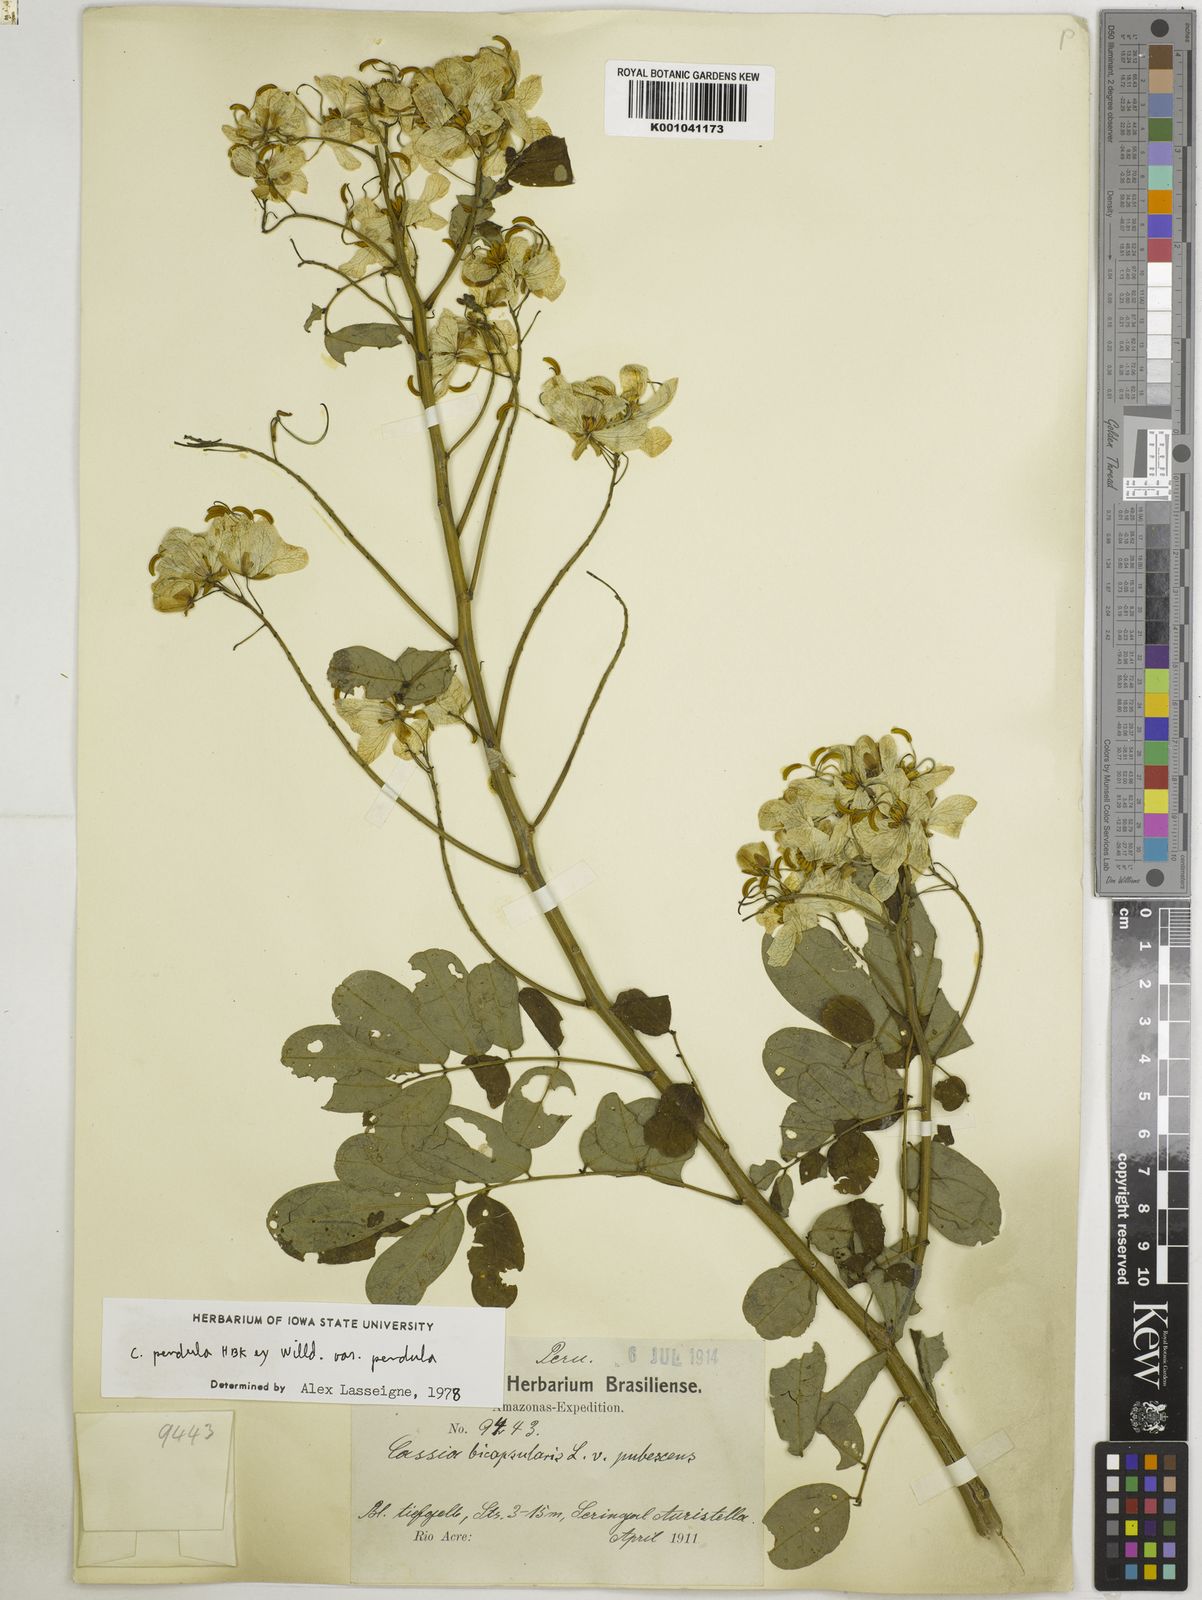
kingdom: Plantae
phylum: Tracheophyta
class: Magnoliopsida
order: Fabales
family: Fabaceae
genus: Senna
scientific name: Senna pendula
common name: Easter cassia
